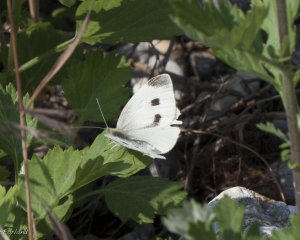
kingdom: Animalia
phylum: Arthropoda
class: Insecta
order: Lepidoptera
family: Pieridae
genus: Pieris
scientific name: Pieris rapae
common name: Cabbage White
